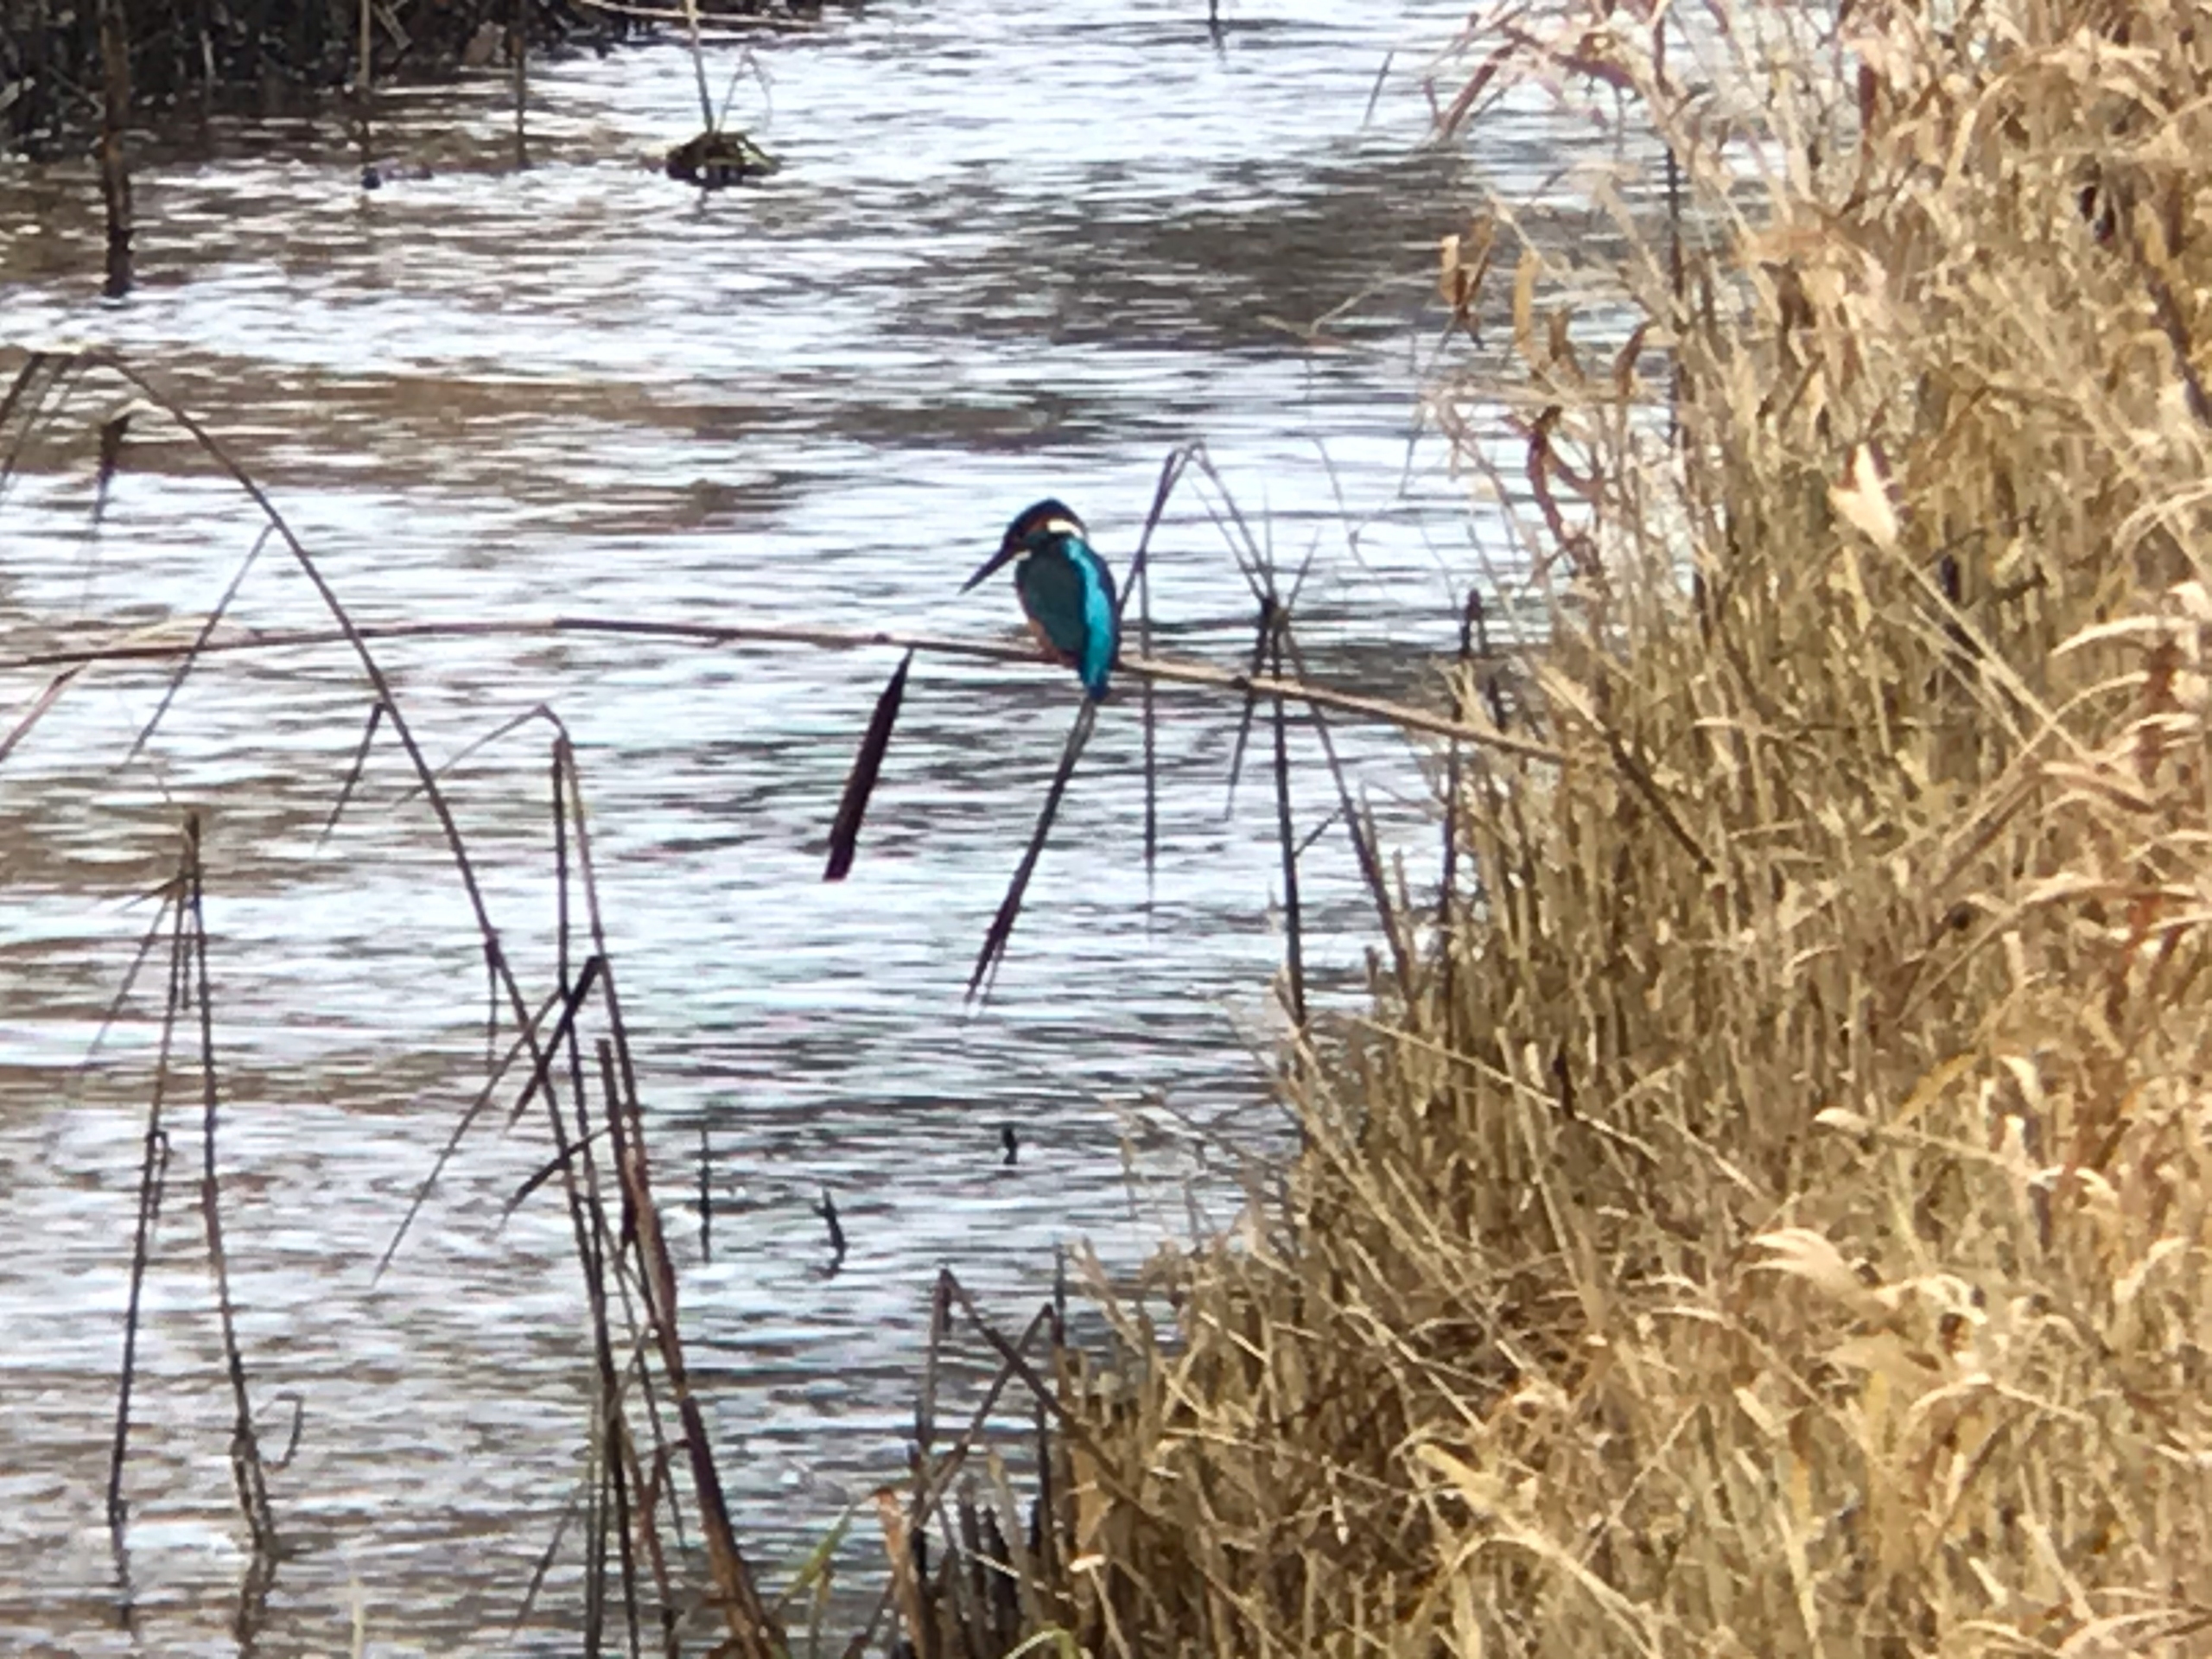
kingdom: Animalia
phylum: Chordata
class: Aves
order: Coraciiformes
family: Alcedinidae
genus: Alcedo
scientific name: Alcedo atthis
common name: Isfugl
